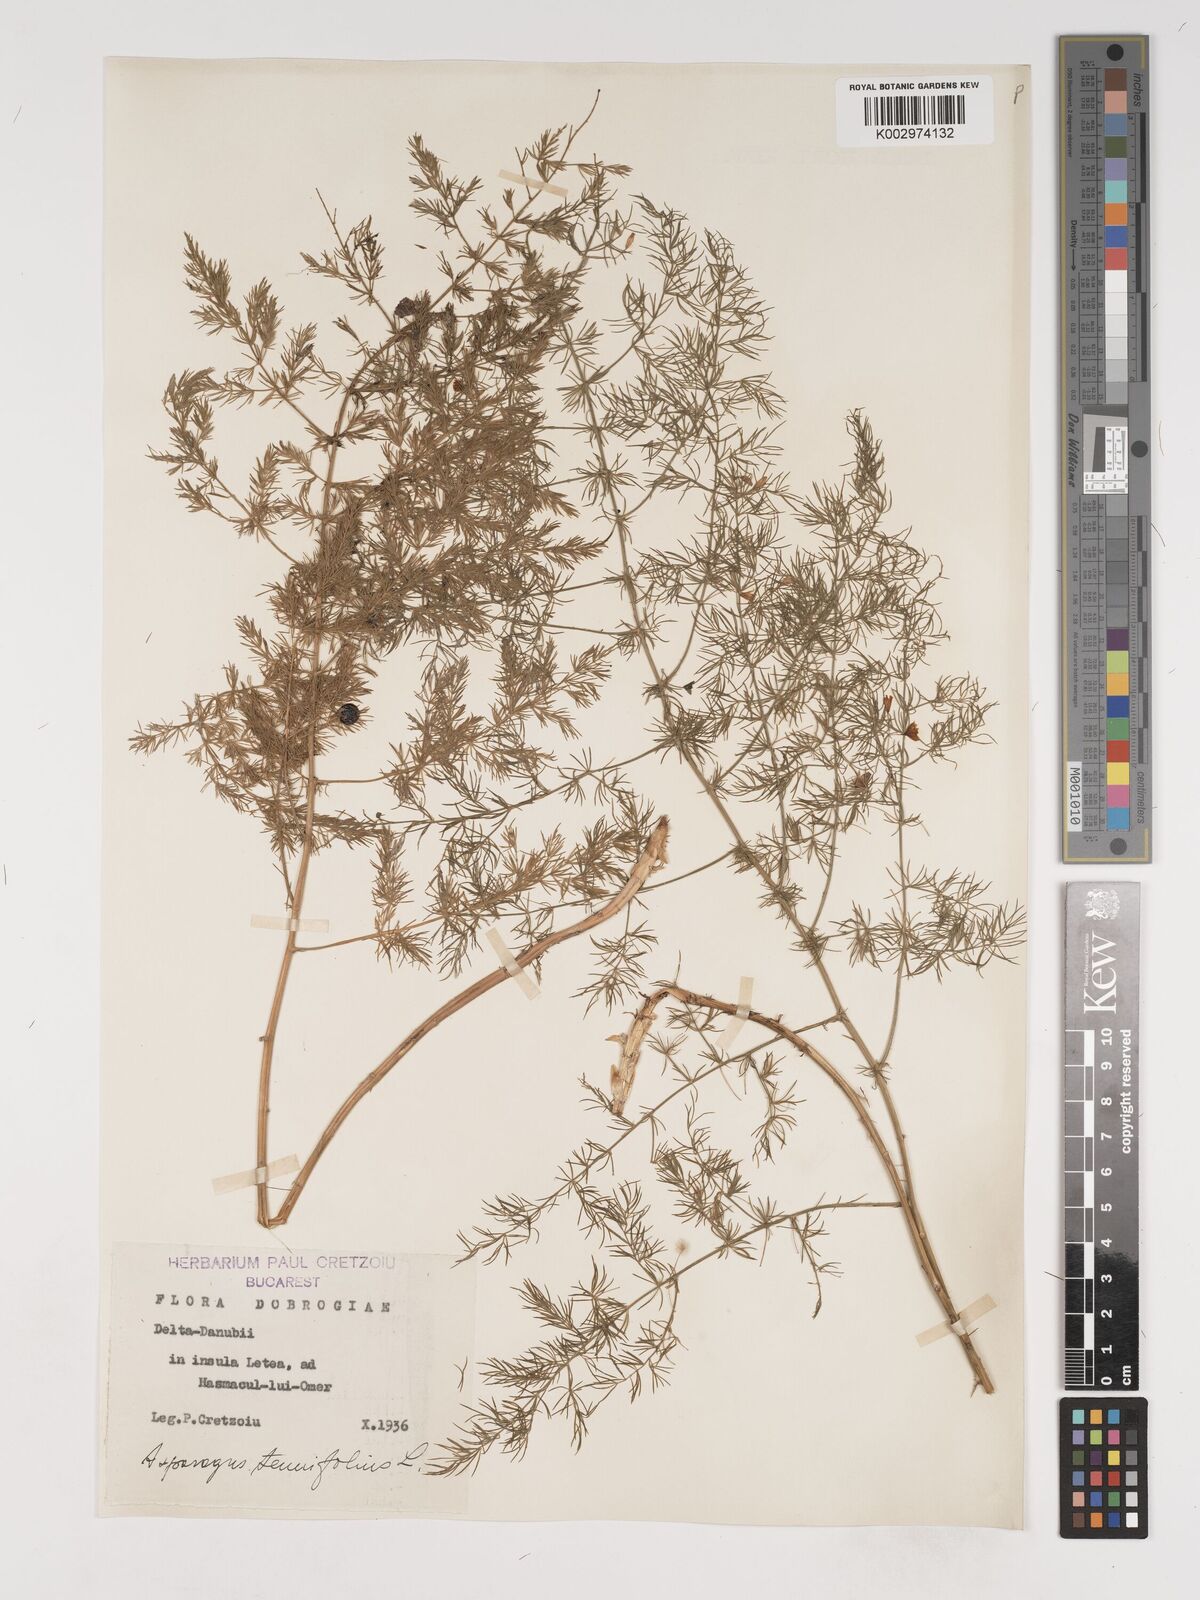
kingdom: Plantae
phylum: Tracheophyta
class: Liliopsida
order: Asparagales
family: Asparagaceae
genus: Asparagus
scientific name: Asparagus tenuifolius
